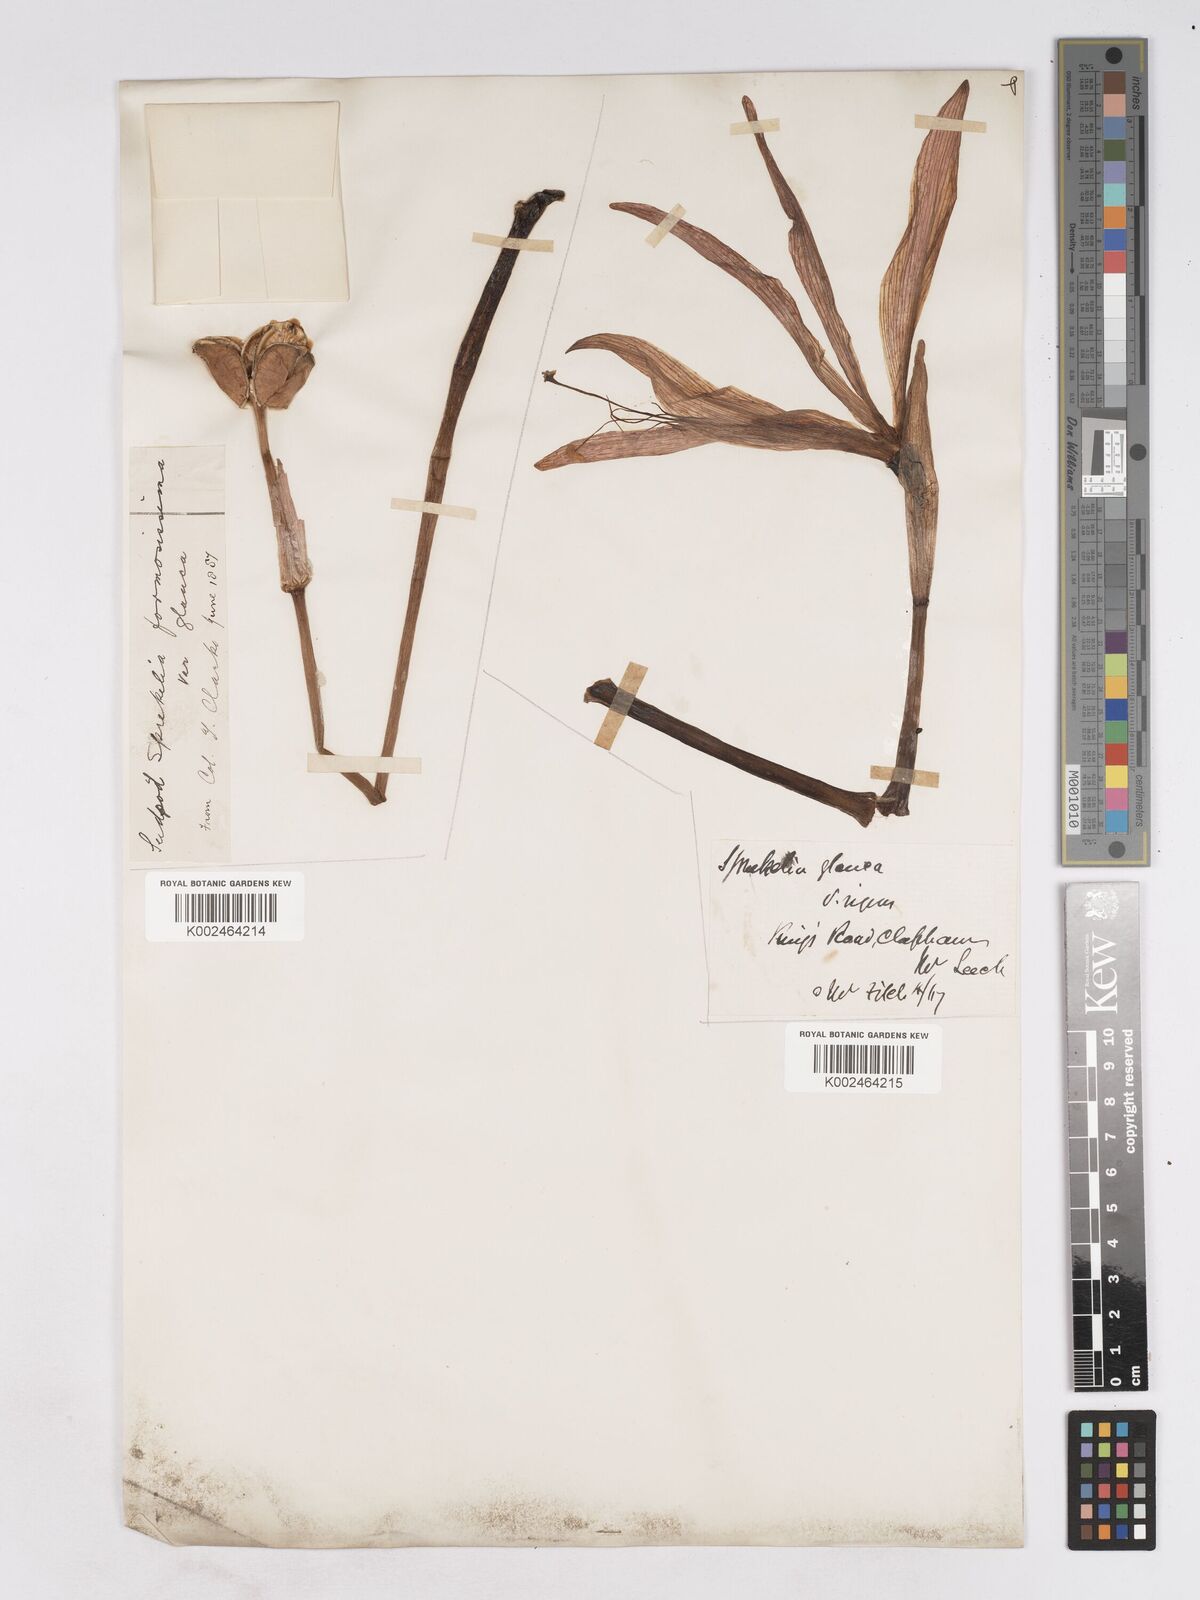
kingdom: Plantae
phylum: Tracheophyta
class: Liliopsida
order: Asparagales
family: Amaryllidaceae
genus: Sprekelia
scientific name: Sprekelia formosissima
